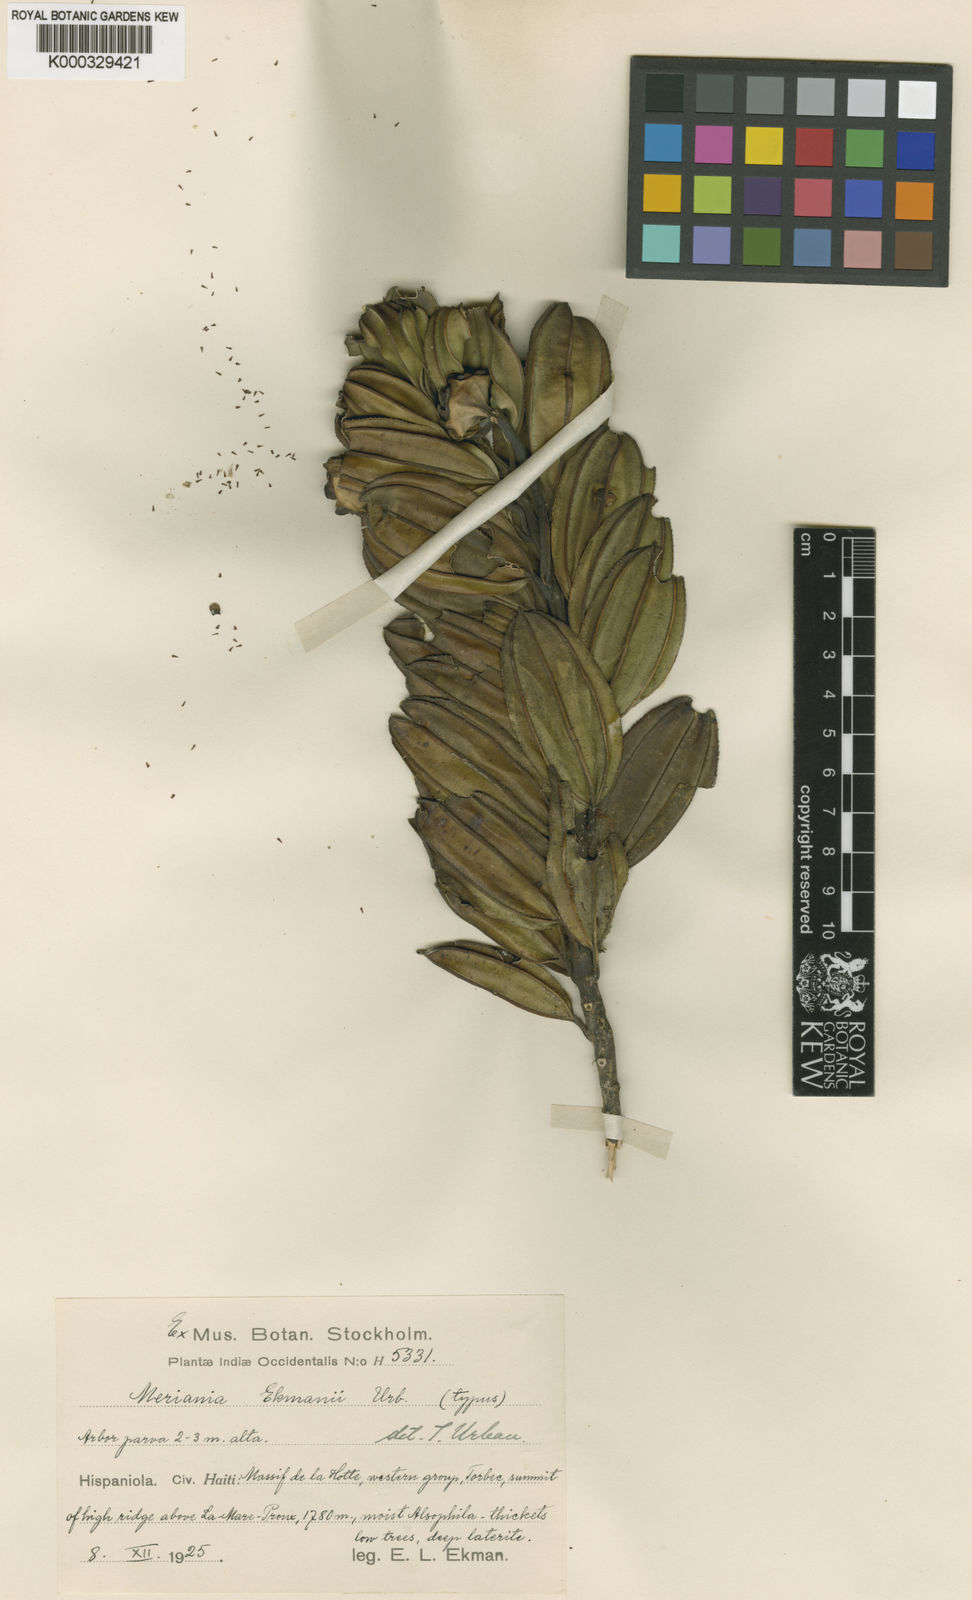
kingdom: Plantae
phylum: Tracheophyta
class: Magnoliopsida
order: Myrtales
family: Melastomataceae
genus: Meriania
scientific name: Meriania ekmanii
